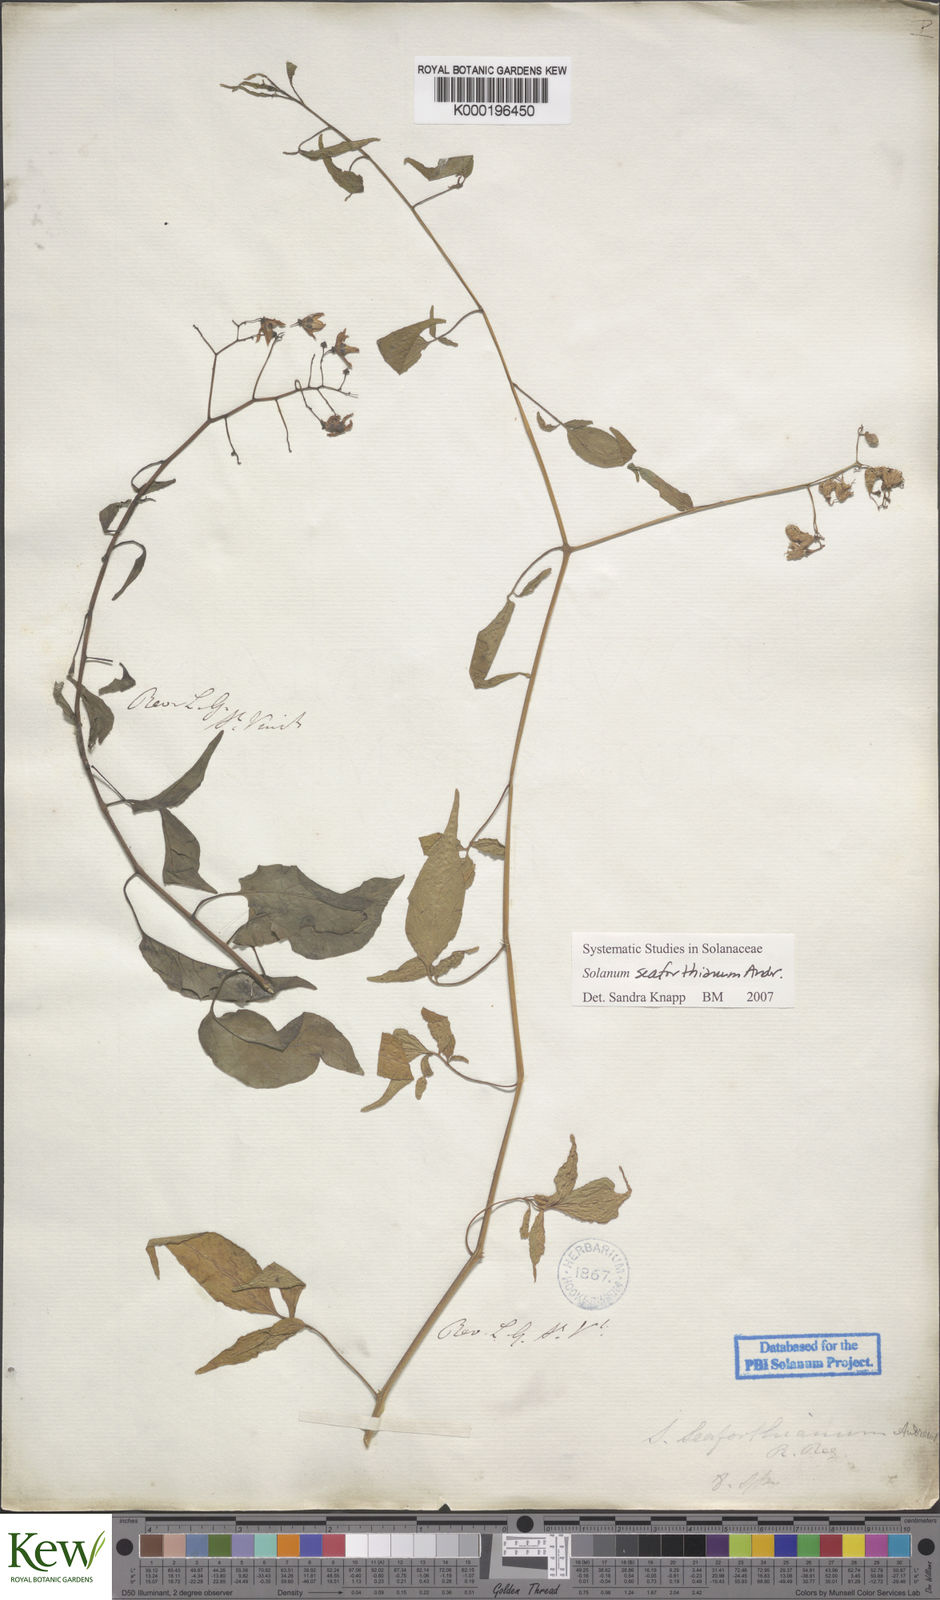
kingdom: Plantae
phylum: Tracheophyta
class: Magnoliopsida
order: Solanales
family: Solanaceae
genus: Solanum
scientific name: Solanum seaforthianum
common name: Brazilian nightshade
